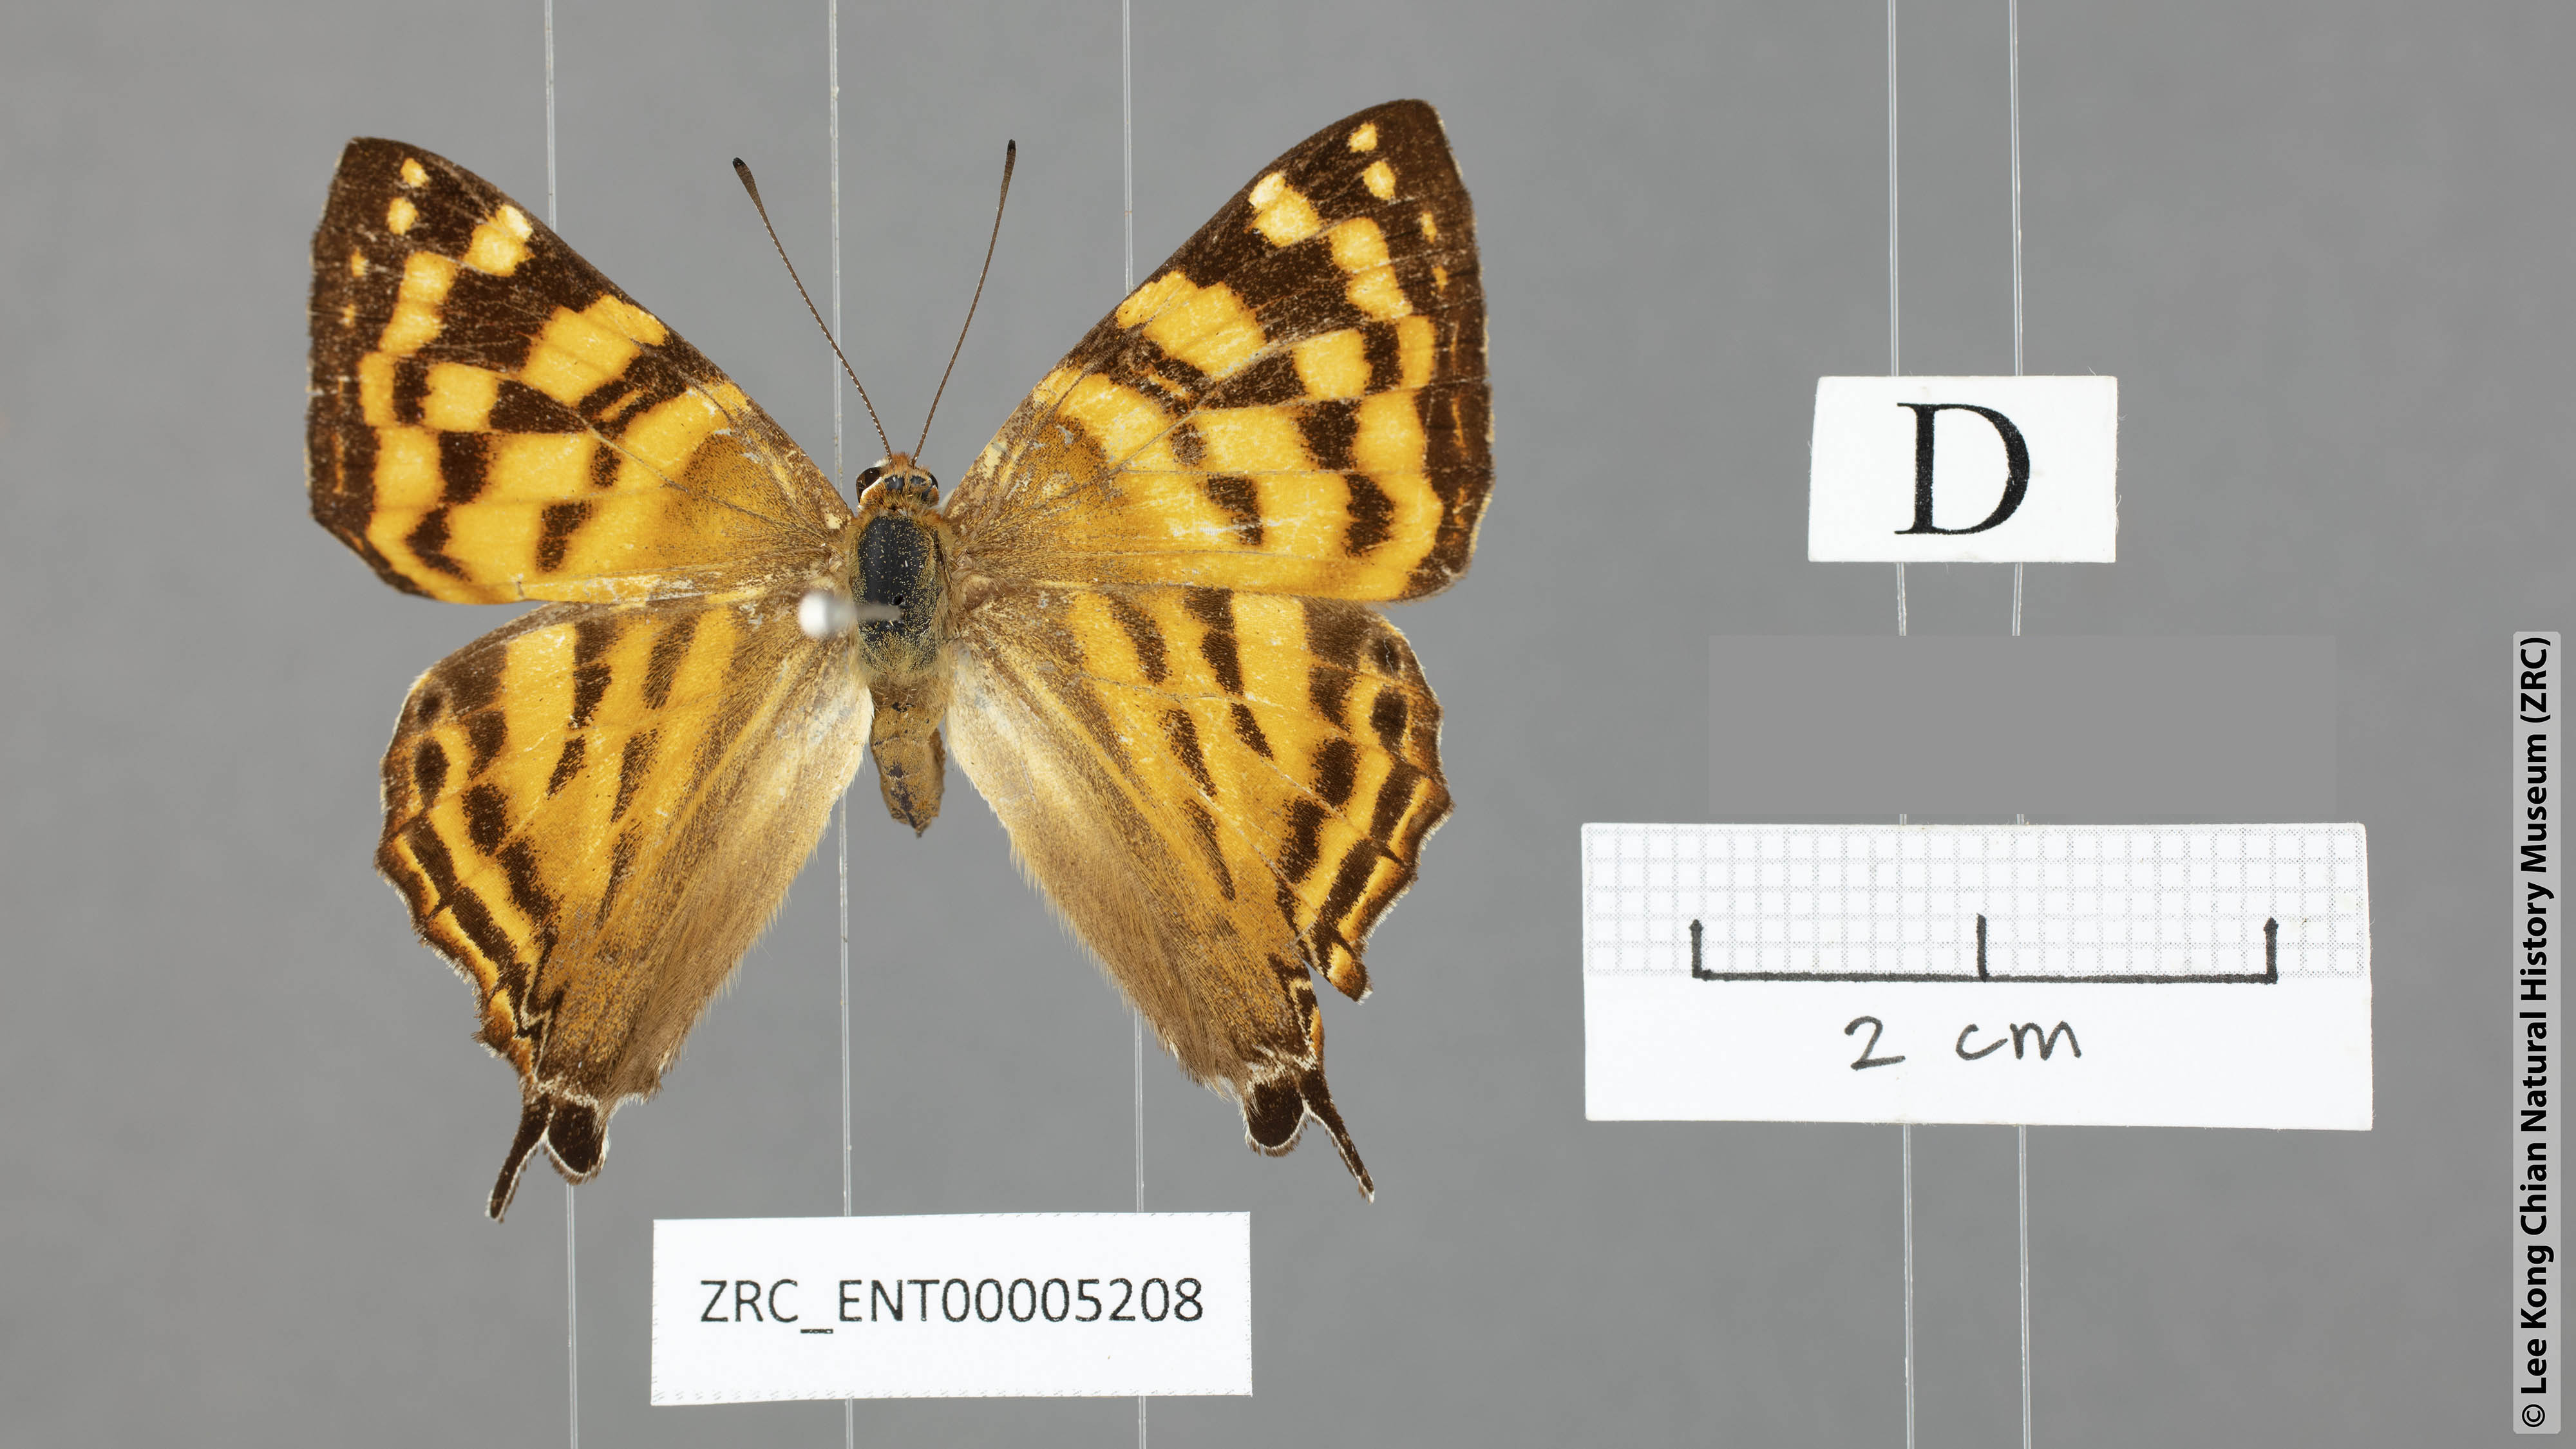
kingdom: Animalia
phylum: Arthropoda
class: Insecta
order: Lepidoptera
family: Lycaenidae
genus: Dodona
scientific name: Dodona egeon
